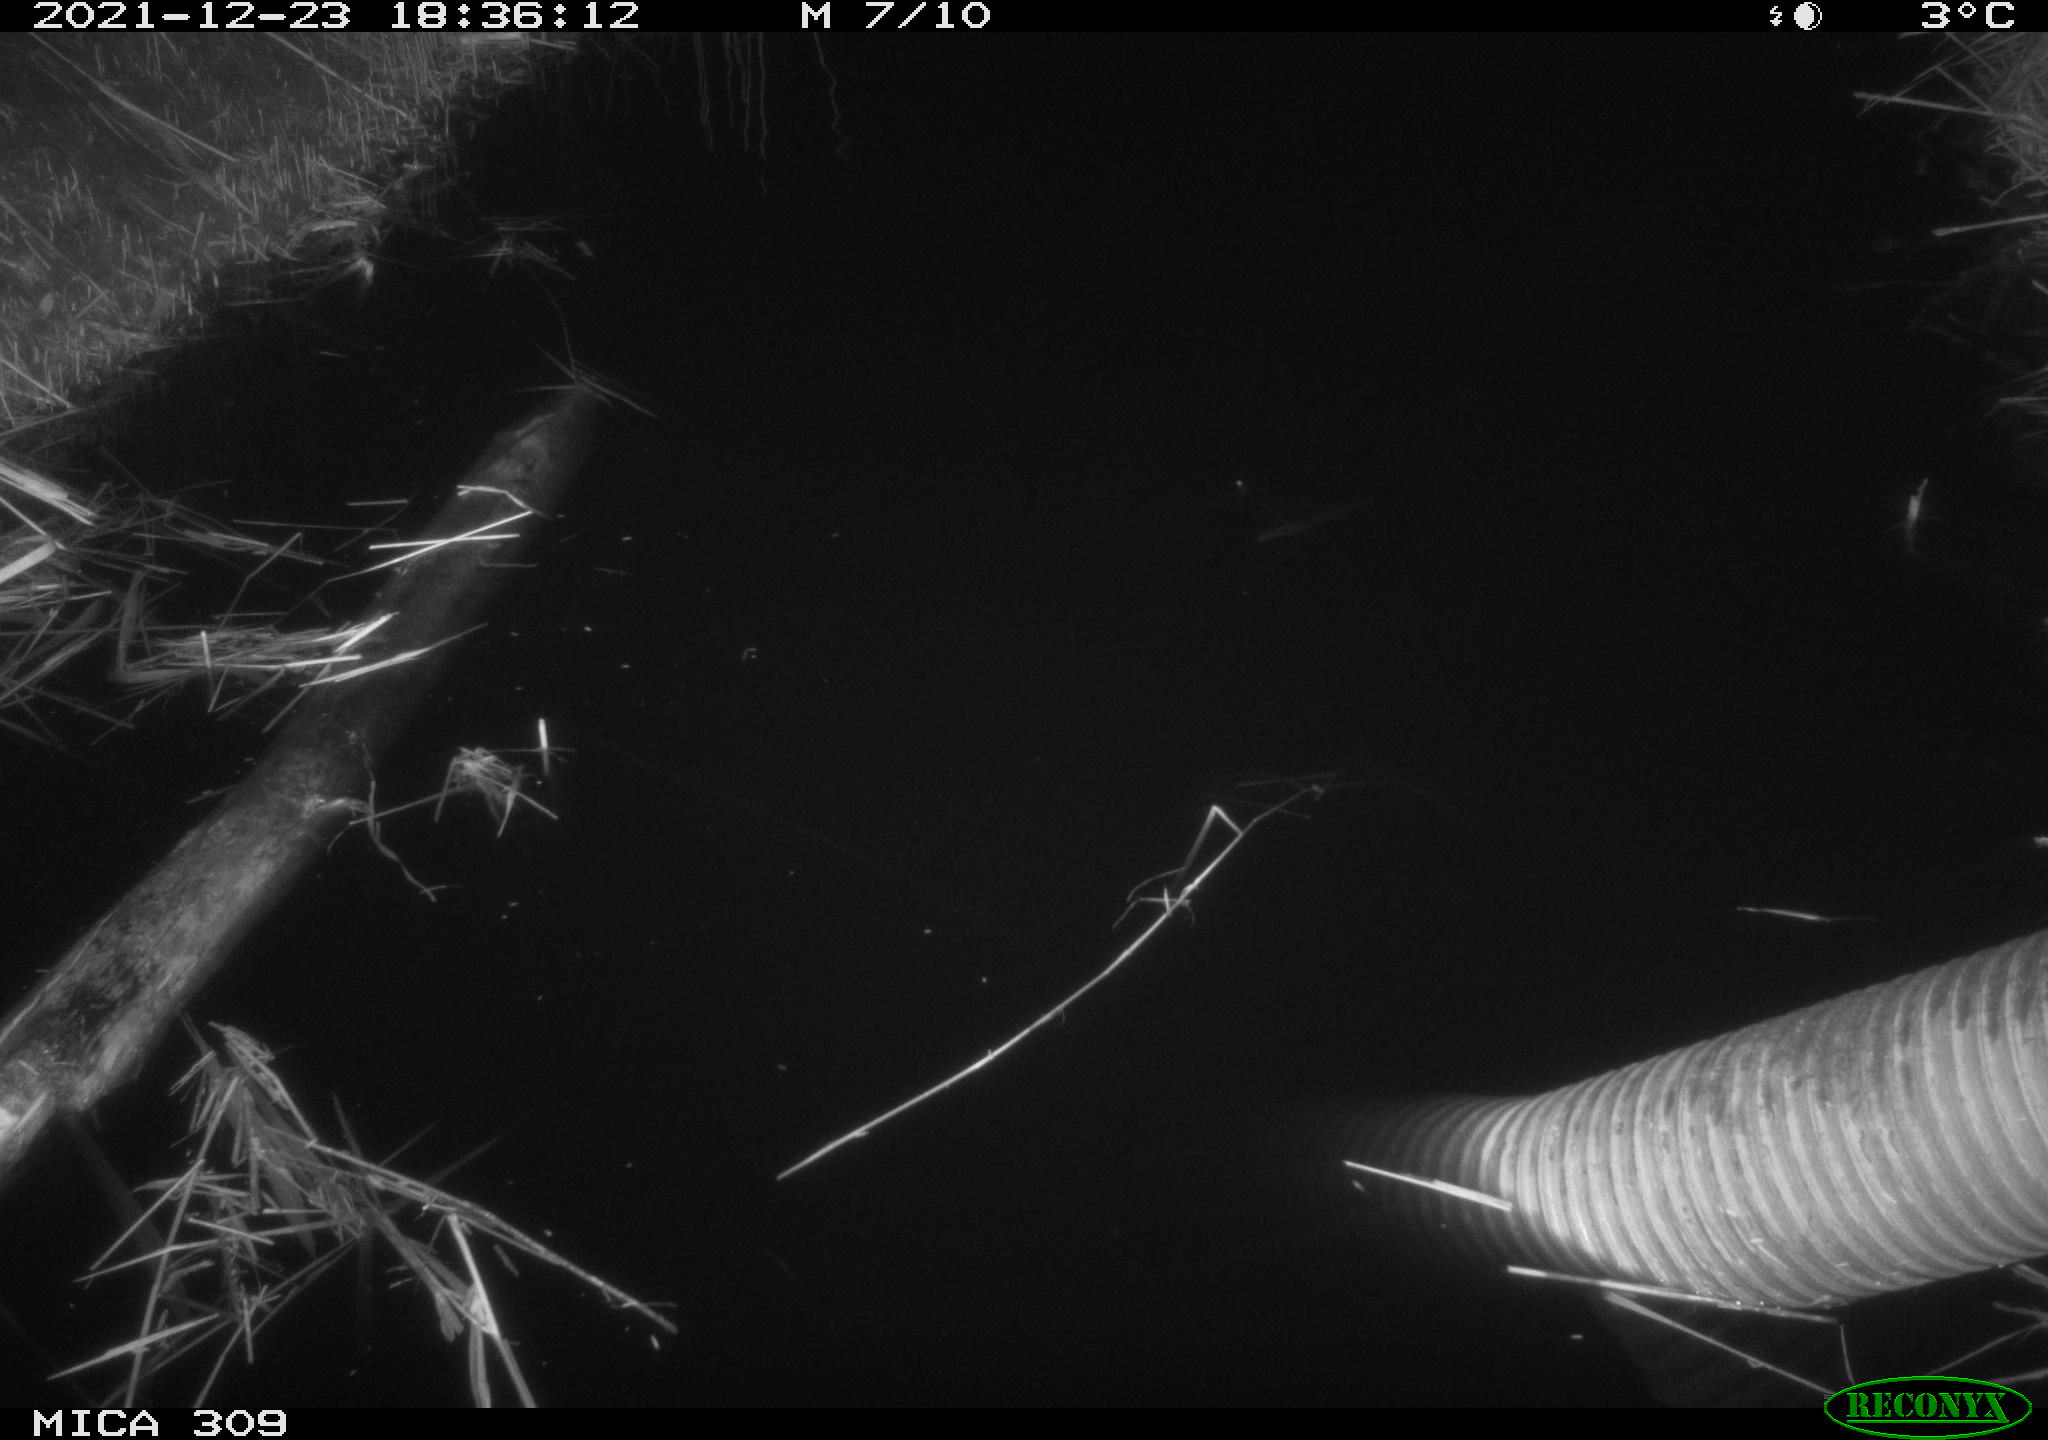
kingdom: Animalia
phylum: Chordata
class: Mammalia
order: Rodentia
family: Muridae
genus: Rattus
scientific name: Rattus norvegicus
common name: Brown rat
